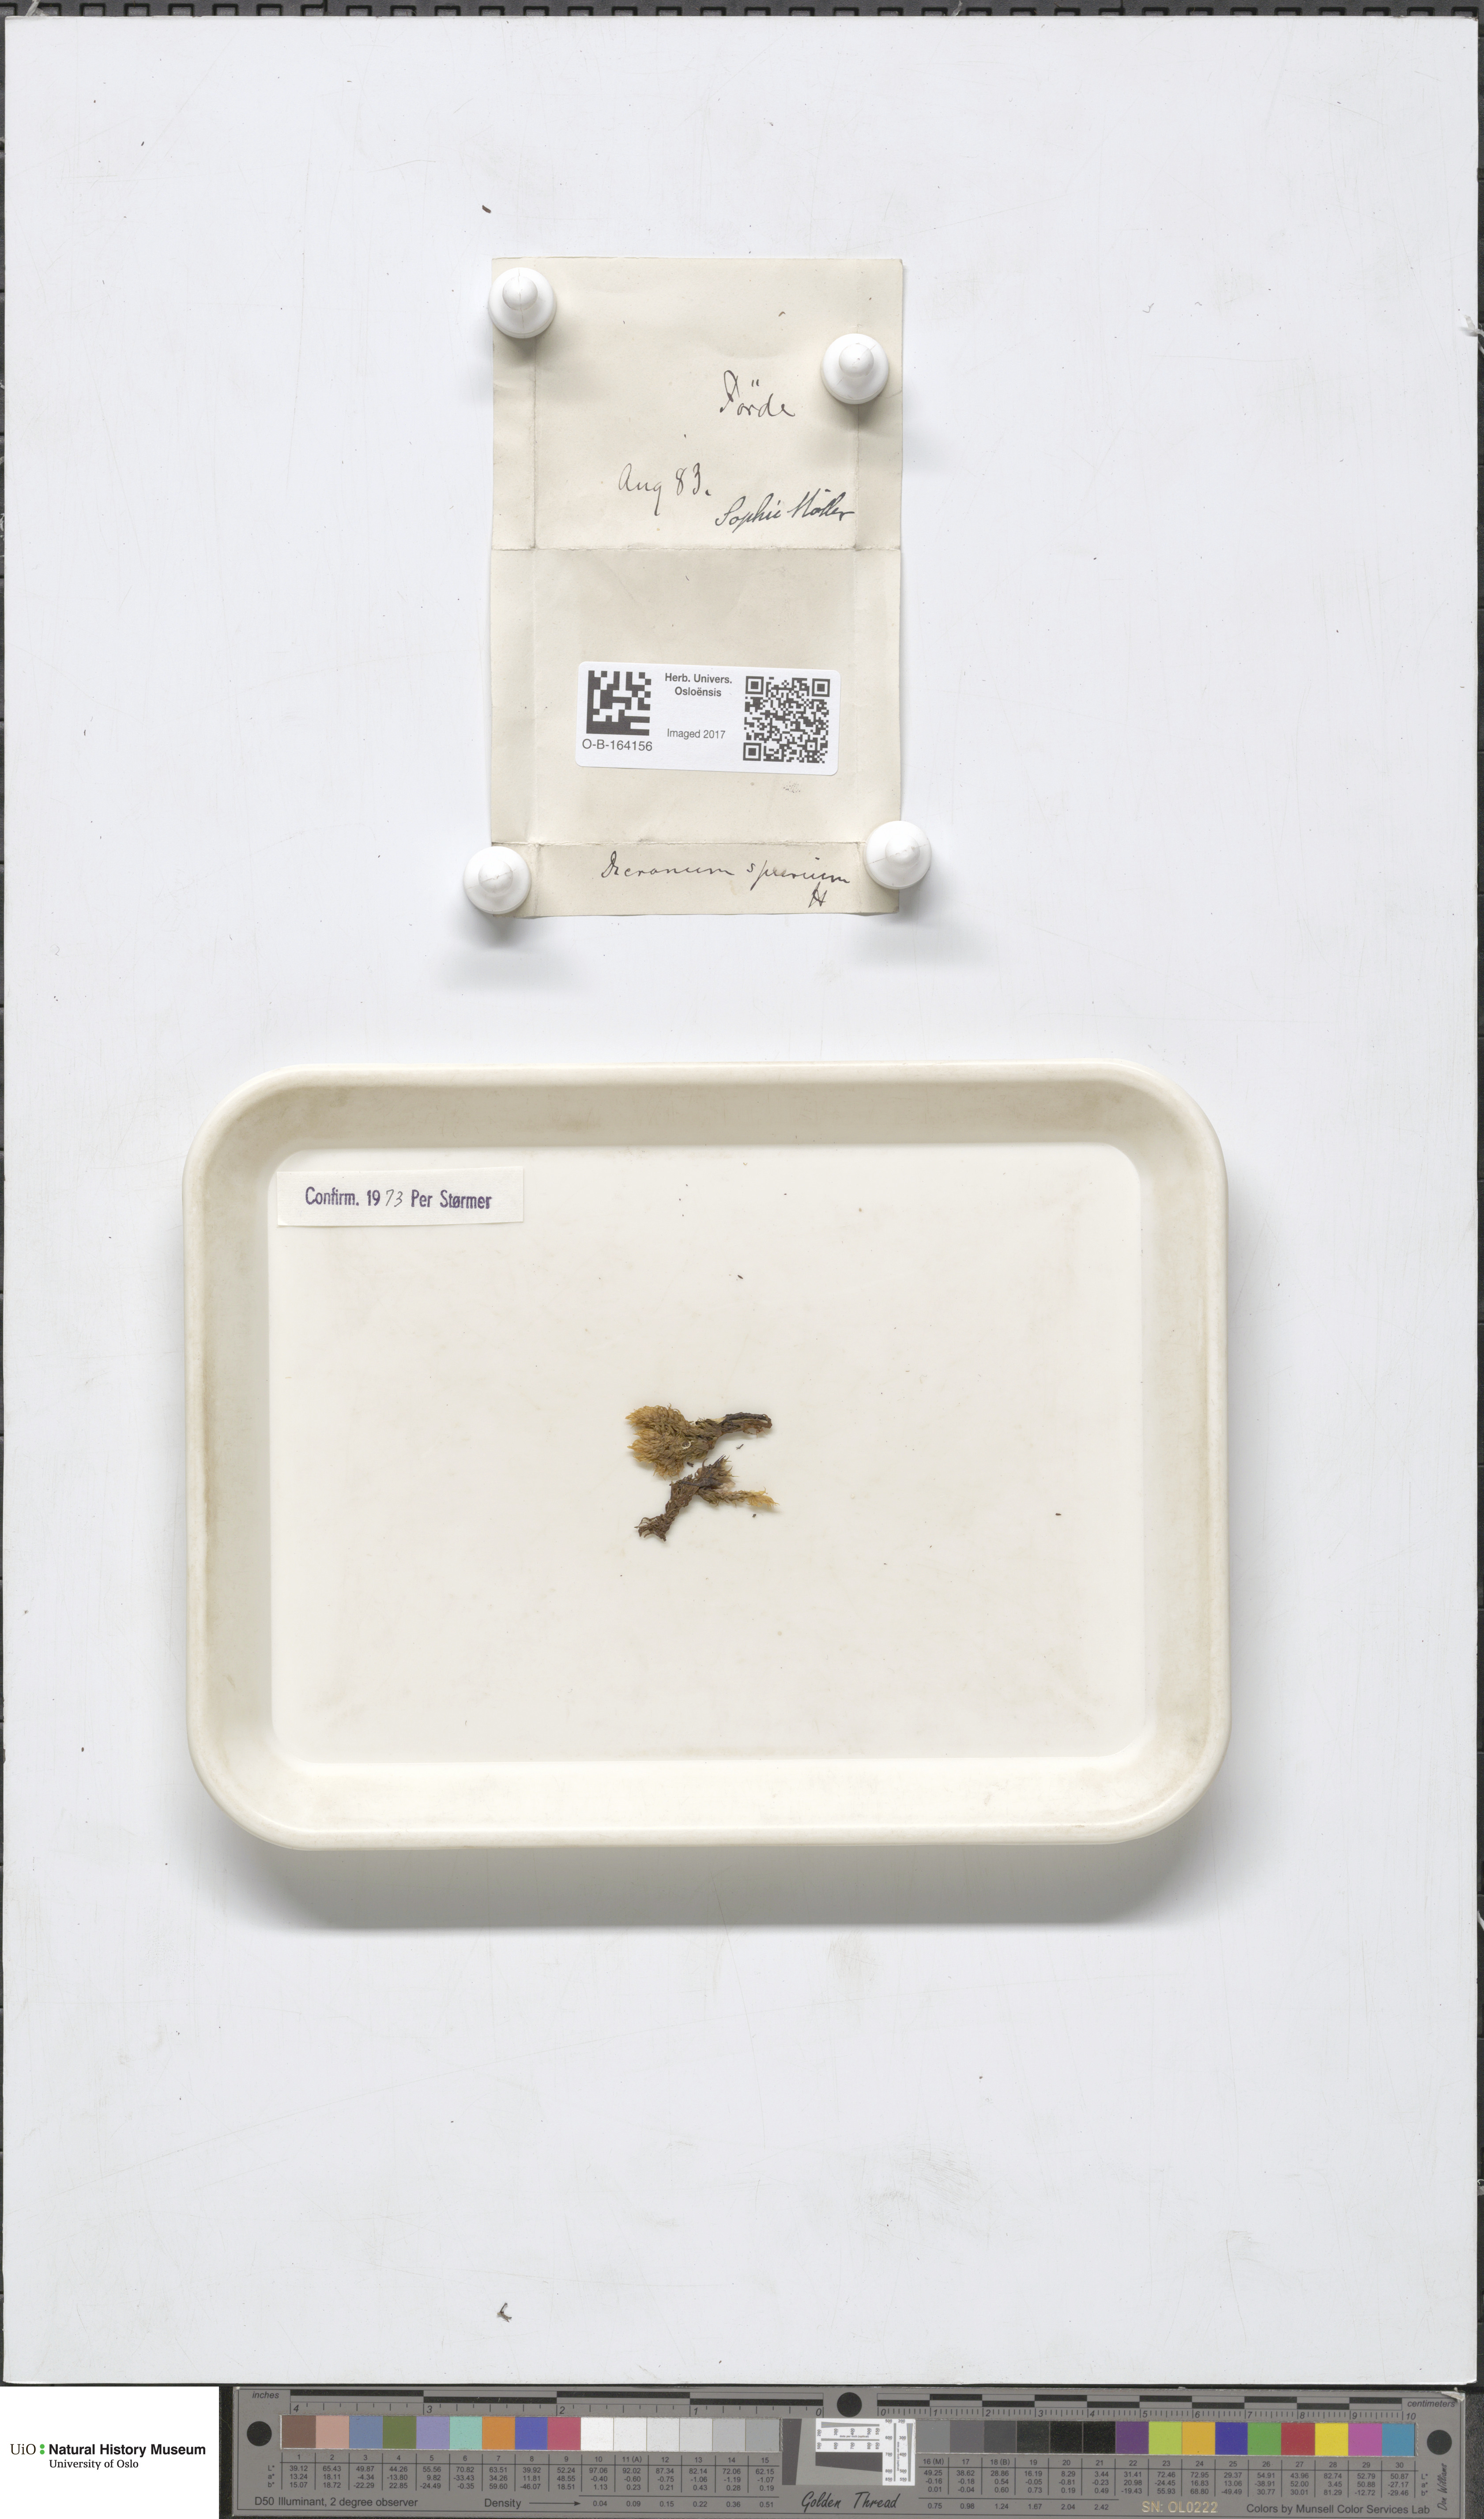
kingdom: Plantae
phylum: Bryophyta
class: Bryopsida
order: Dicranales
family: Dicranaceae
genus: Dicranum
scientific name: Dicranum spurium
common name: Spurred broom moss
